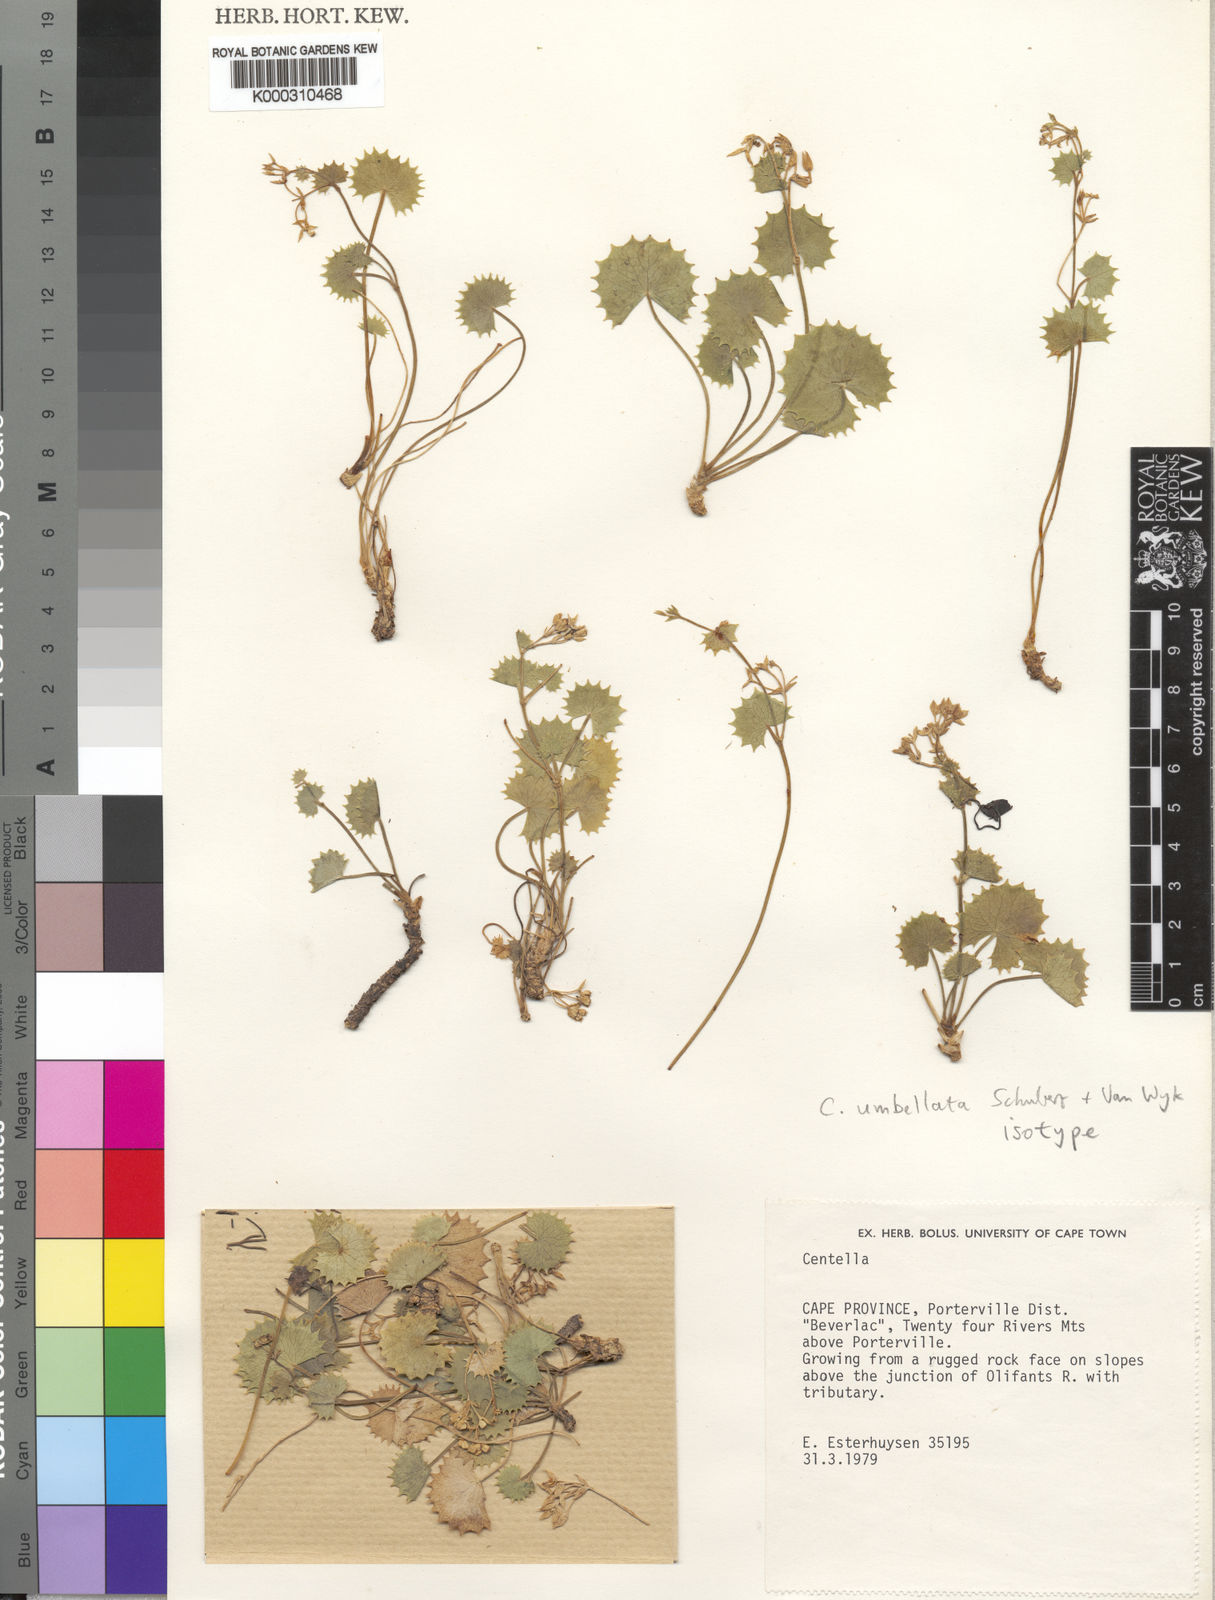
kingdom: Plantae
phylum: Tracheophyta
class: Magnoliopsida
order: Apiales
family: Apiaceae
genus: Centella
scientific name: Centella umbellata
